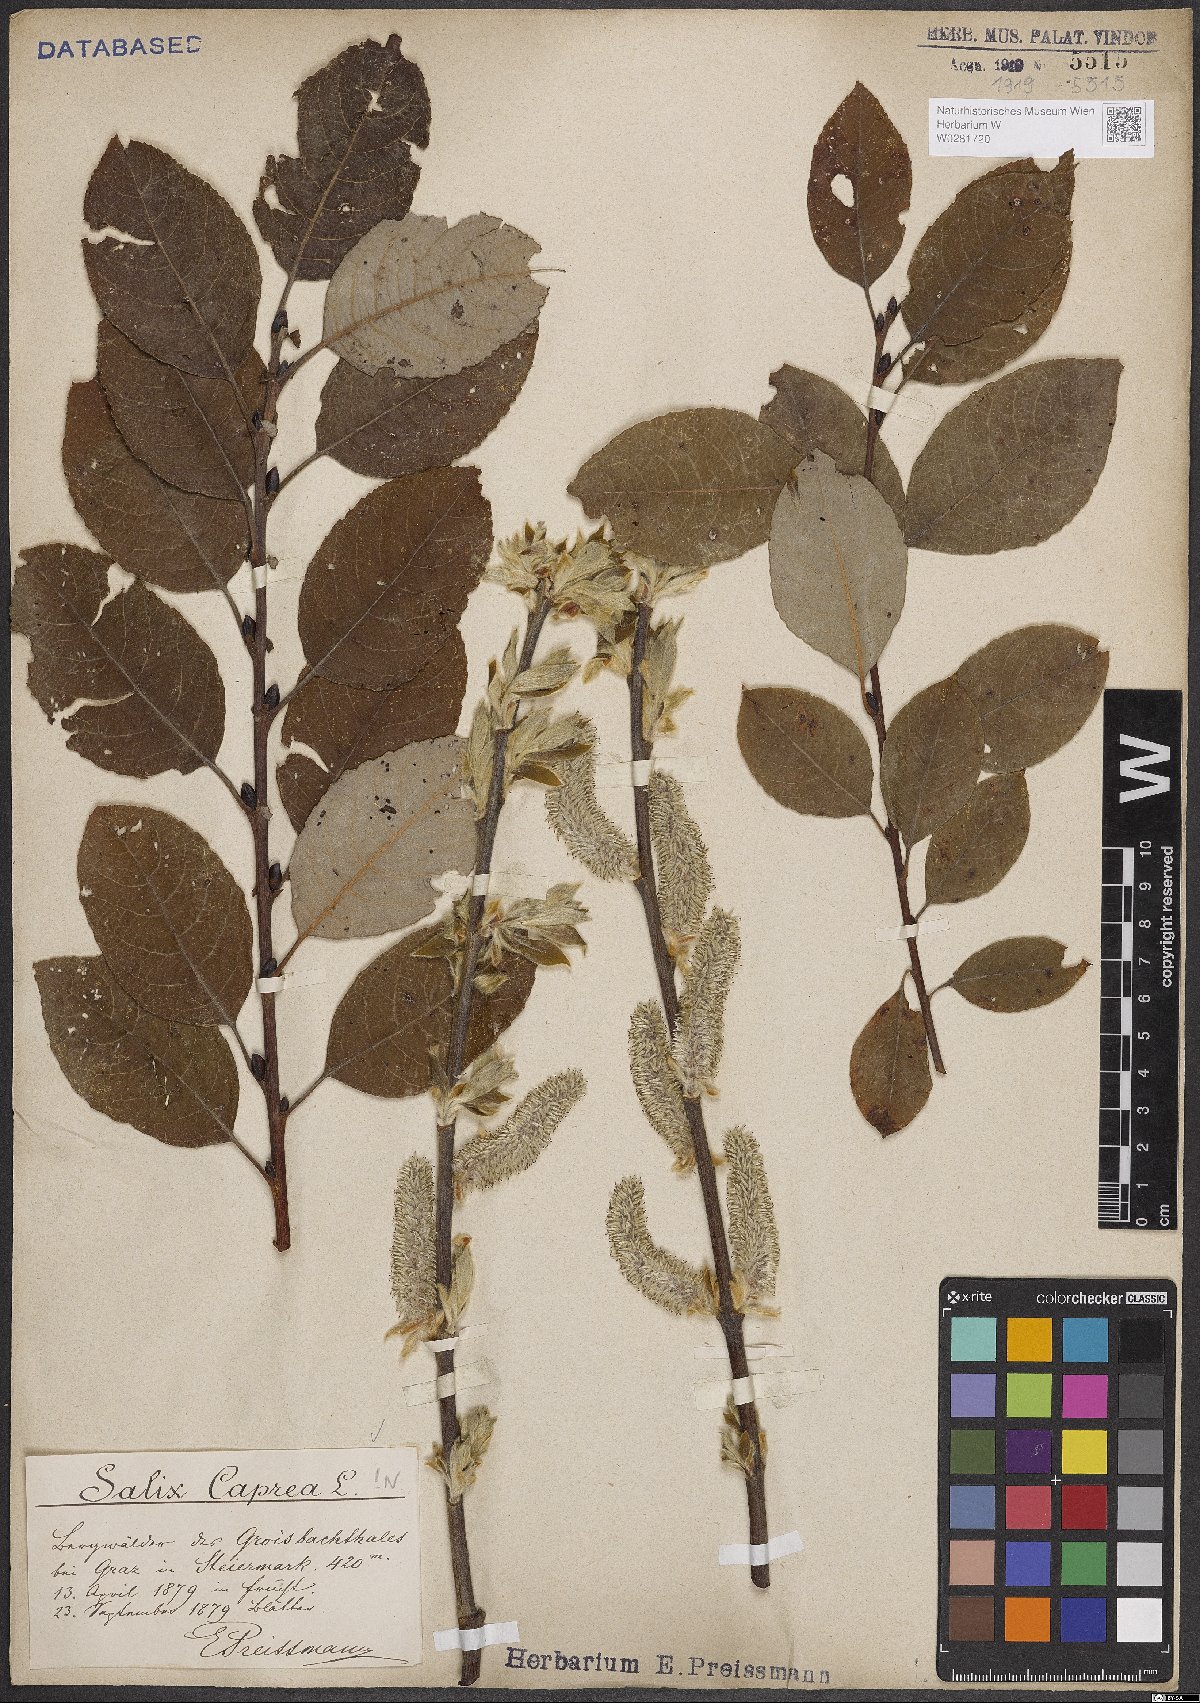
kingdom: Plantae
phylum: Tracheophyta
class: Magnoliopsida
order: Malpighiales
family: Salicaceae
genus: Salix
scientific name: Salix caprea
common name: Goat willow
